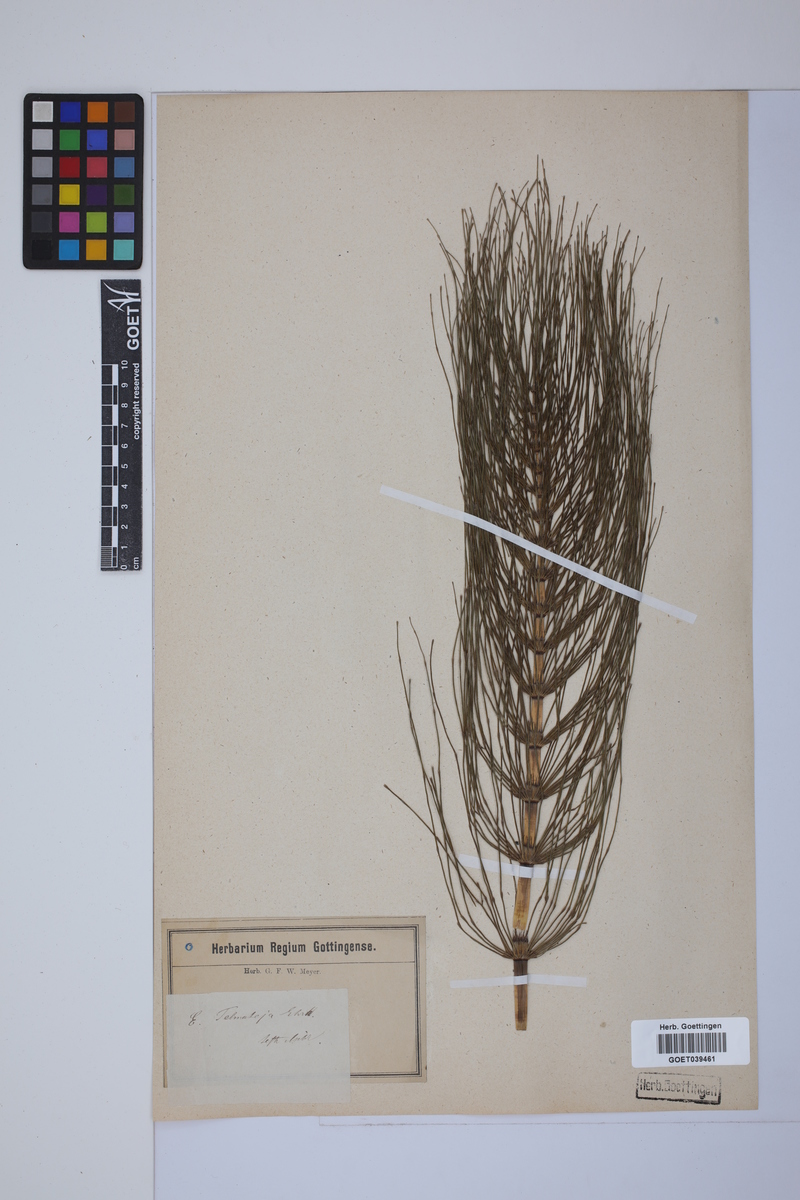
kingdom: Plantae
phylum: Tracheophyta
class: Polypodiopsida
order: Equisetales
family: Equisetaceae
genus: Equisetum
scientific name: Equisetum telmateia
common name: Great horsetail
